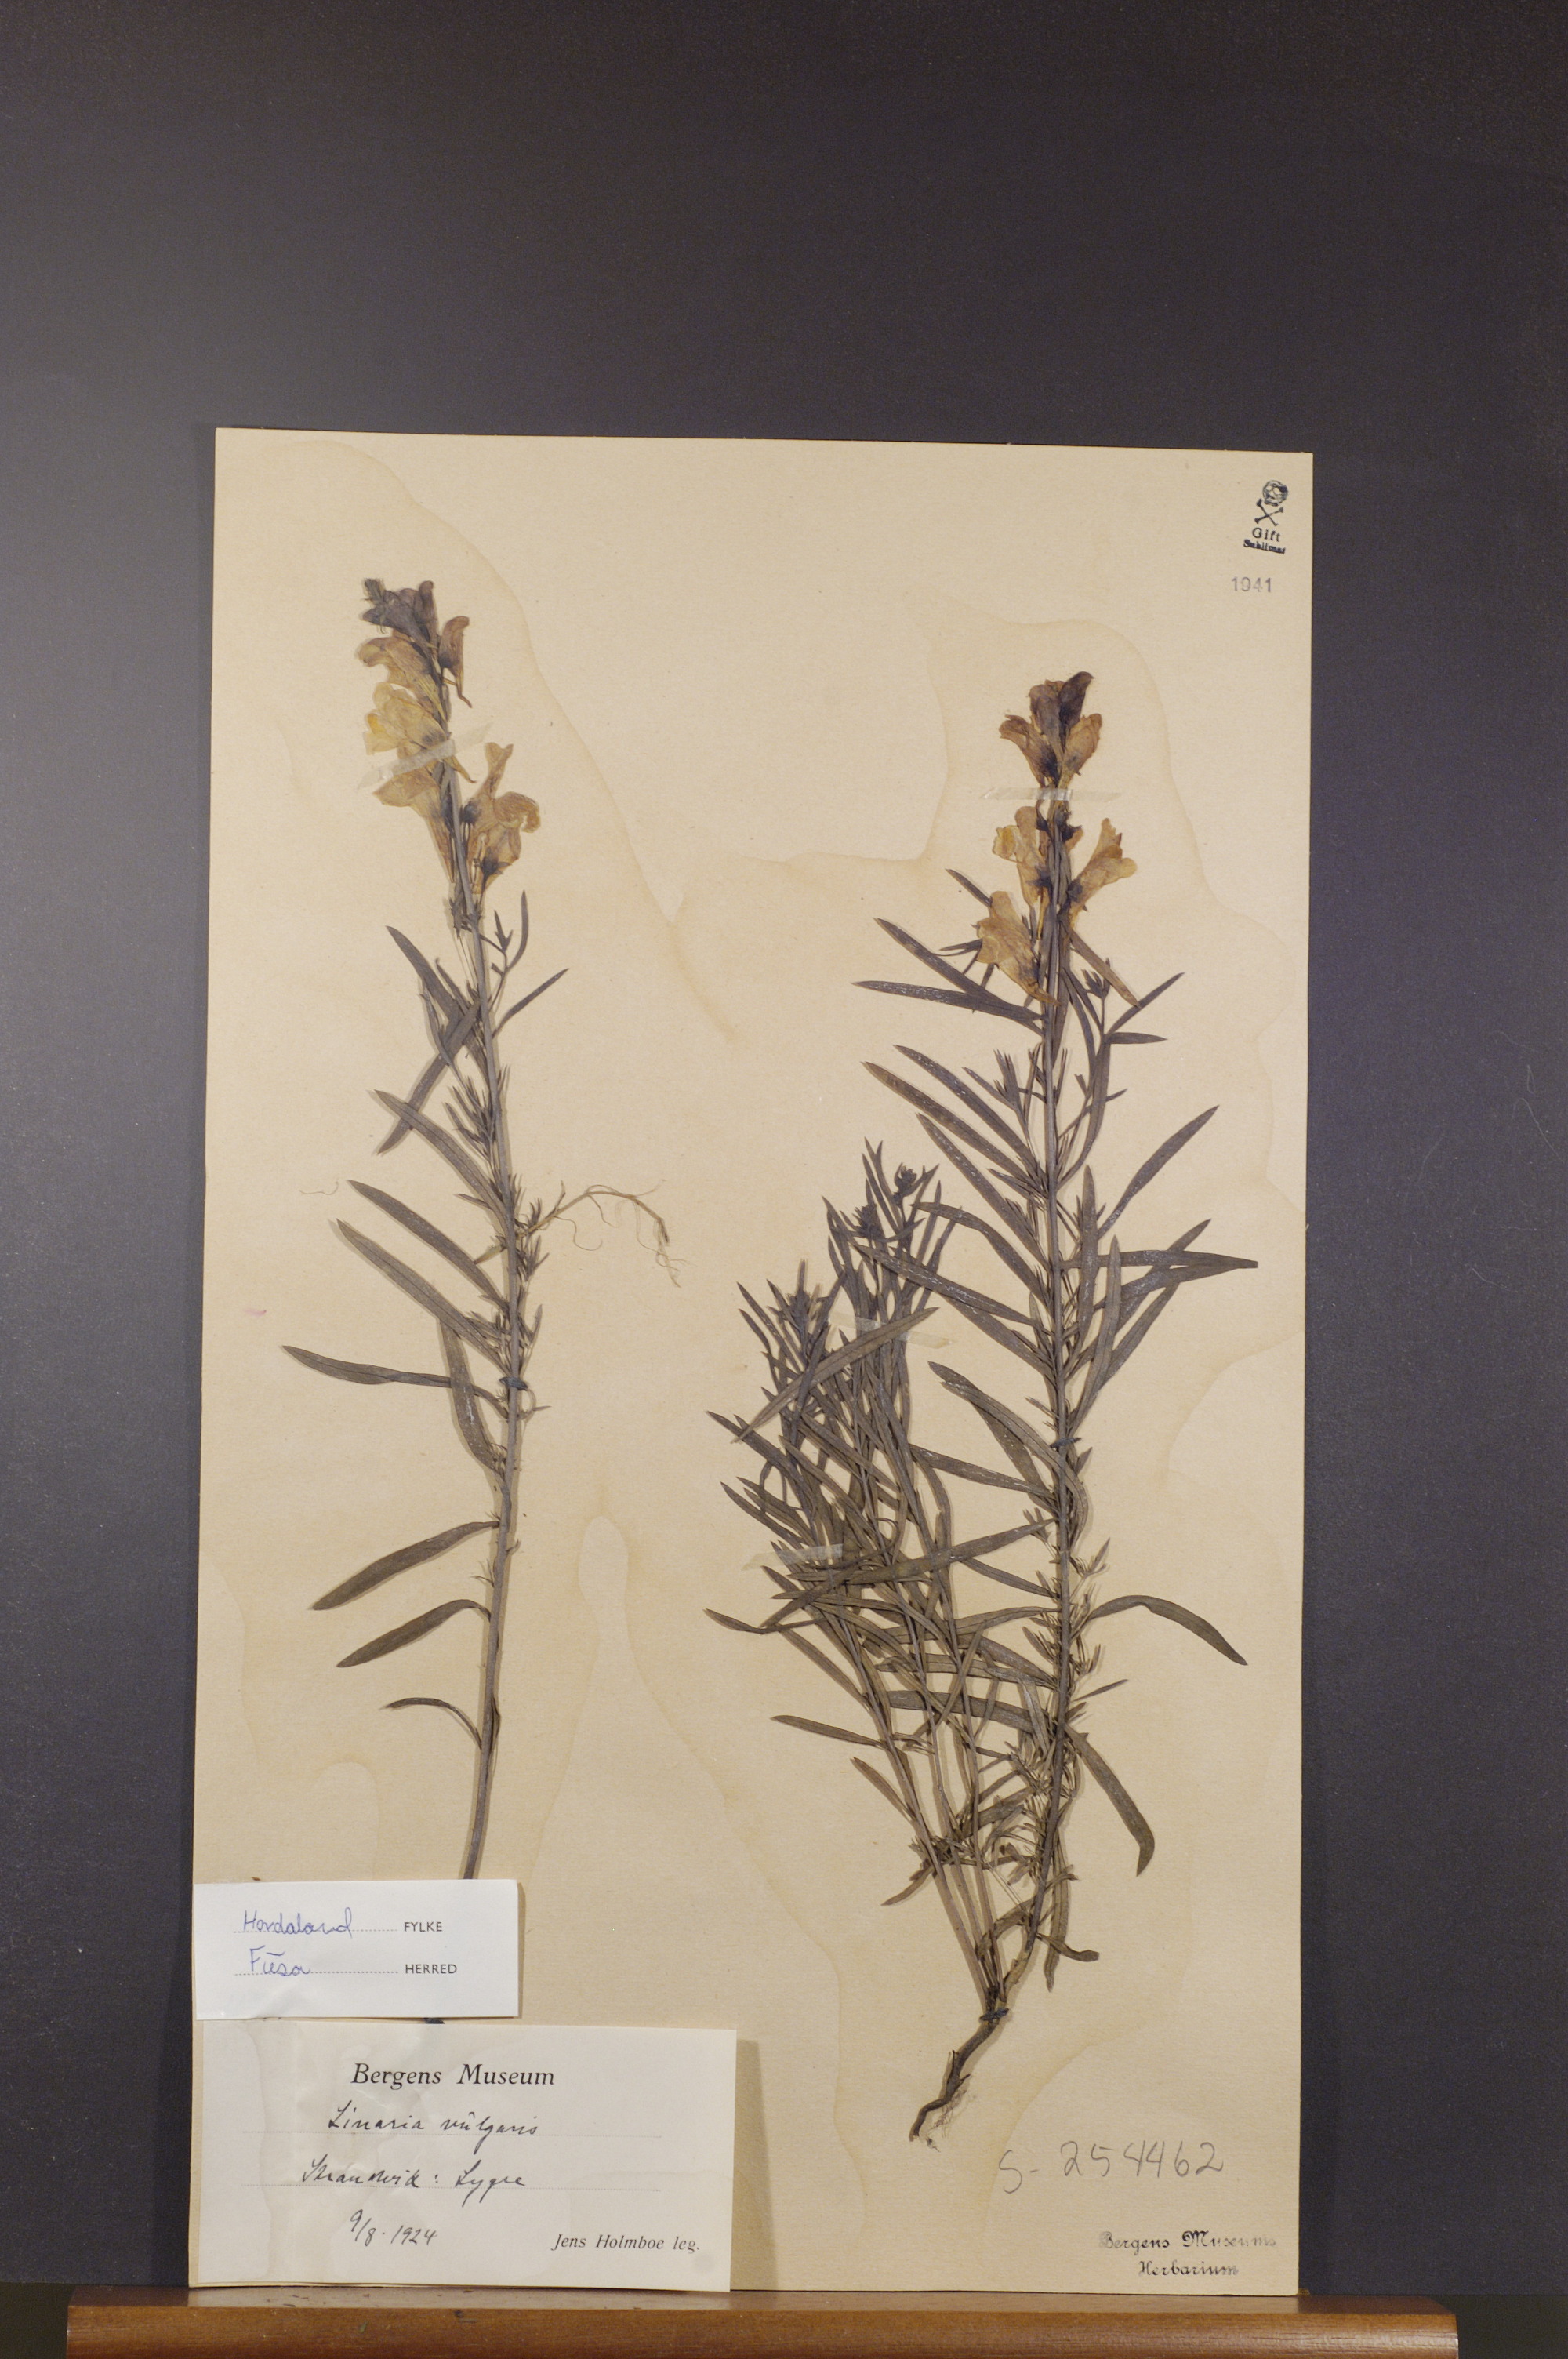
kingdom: Plantae
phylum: Tracheophyta
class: Magnoliopsida
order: Lamiales
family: Plantaginaceae
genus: Linaria
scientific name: Linaria vulgaris
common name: Butter and eggs
